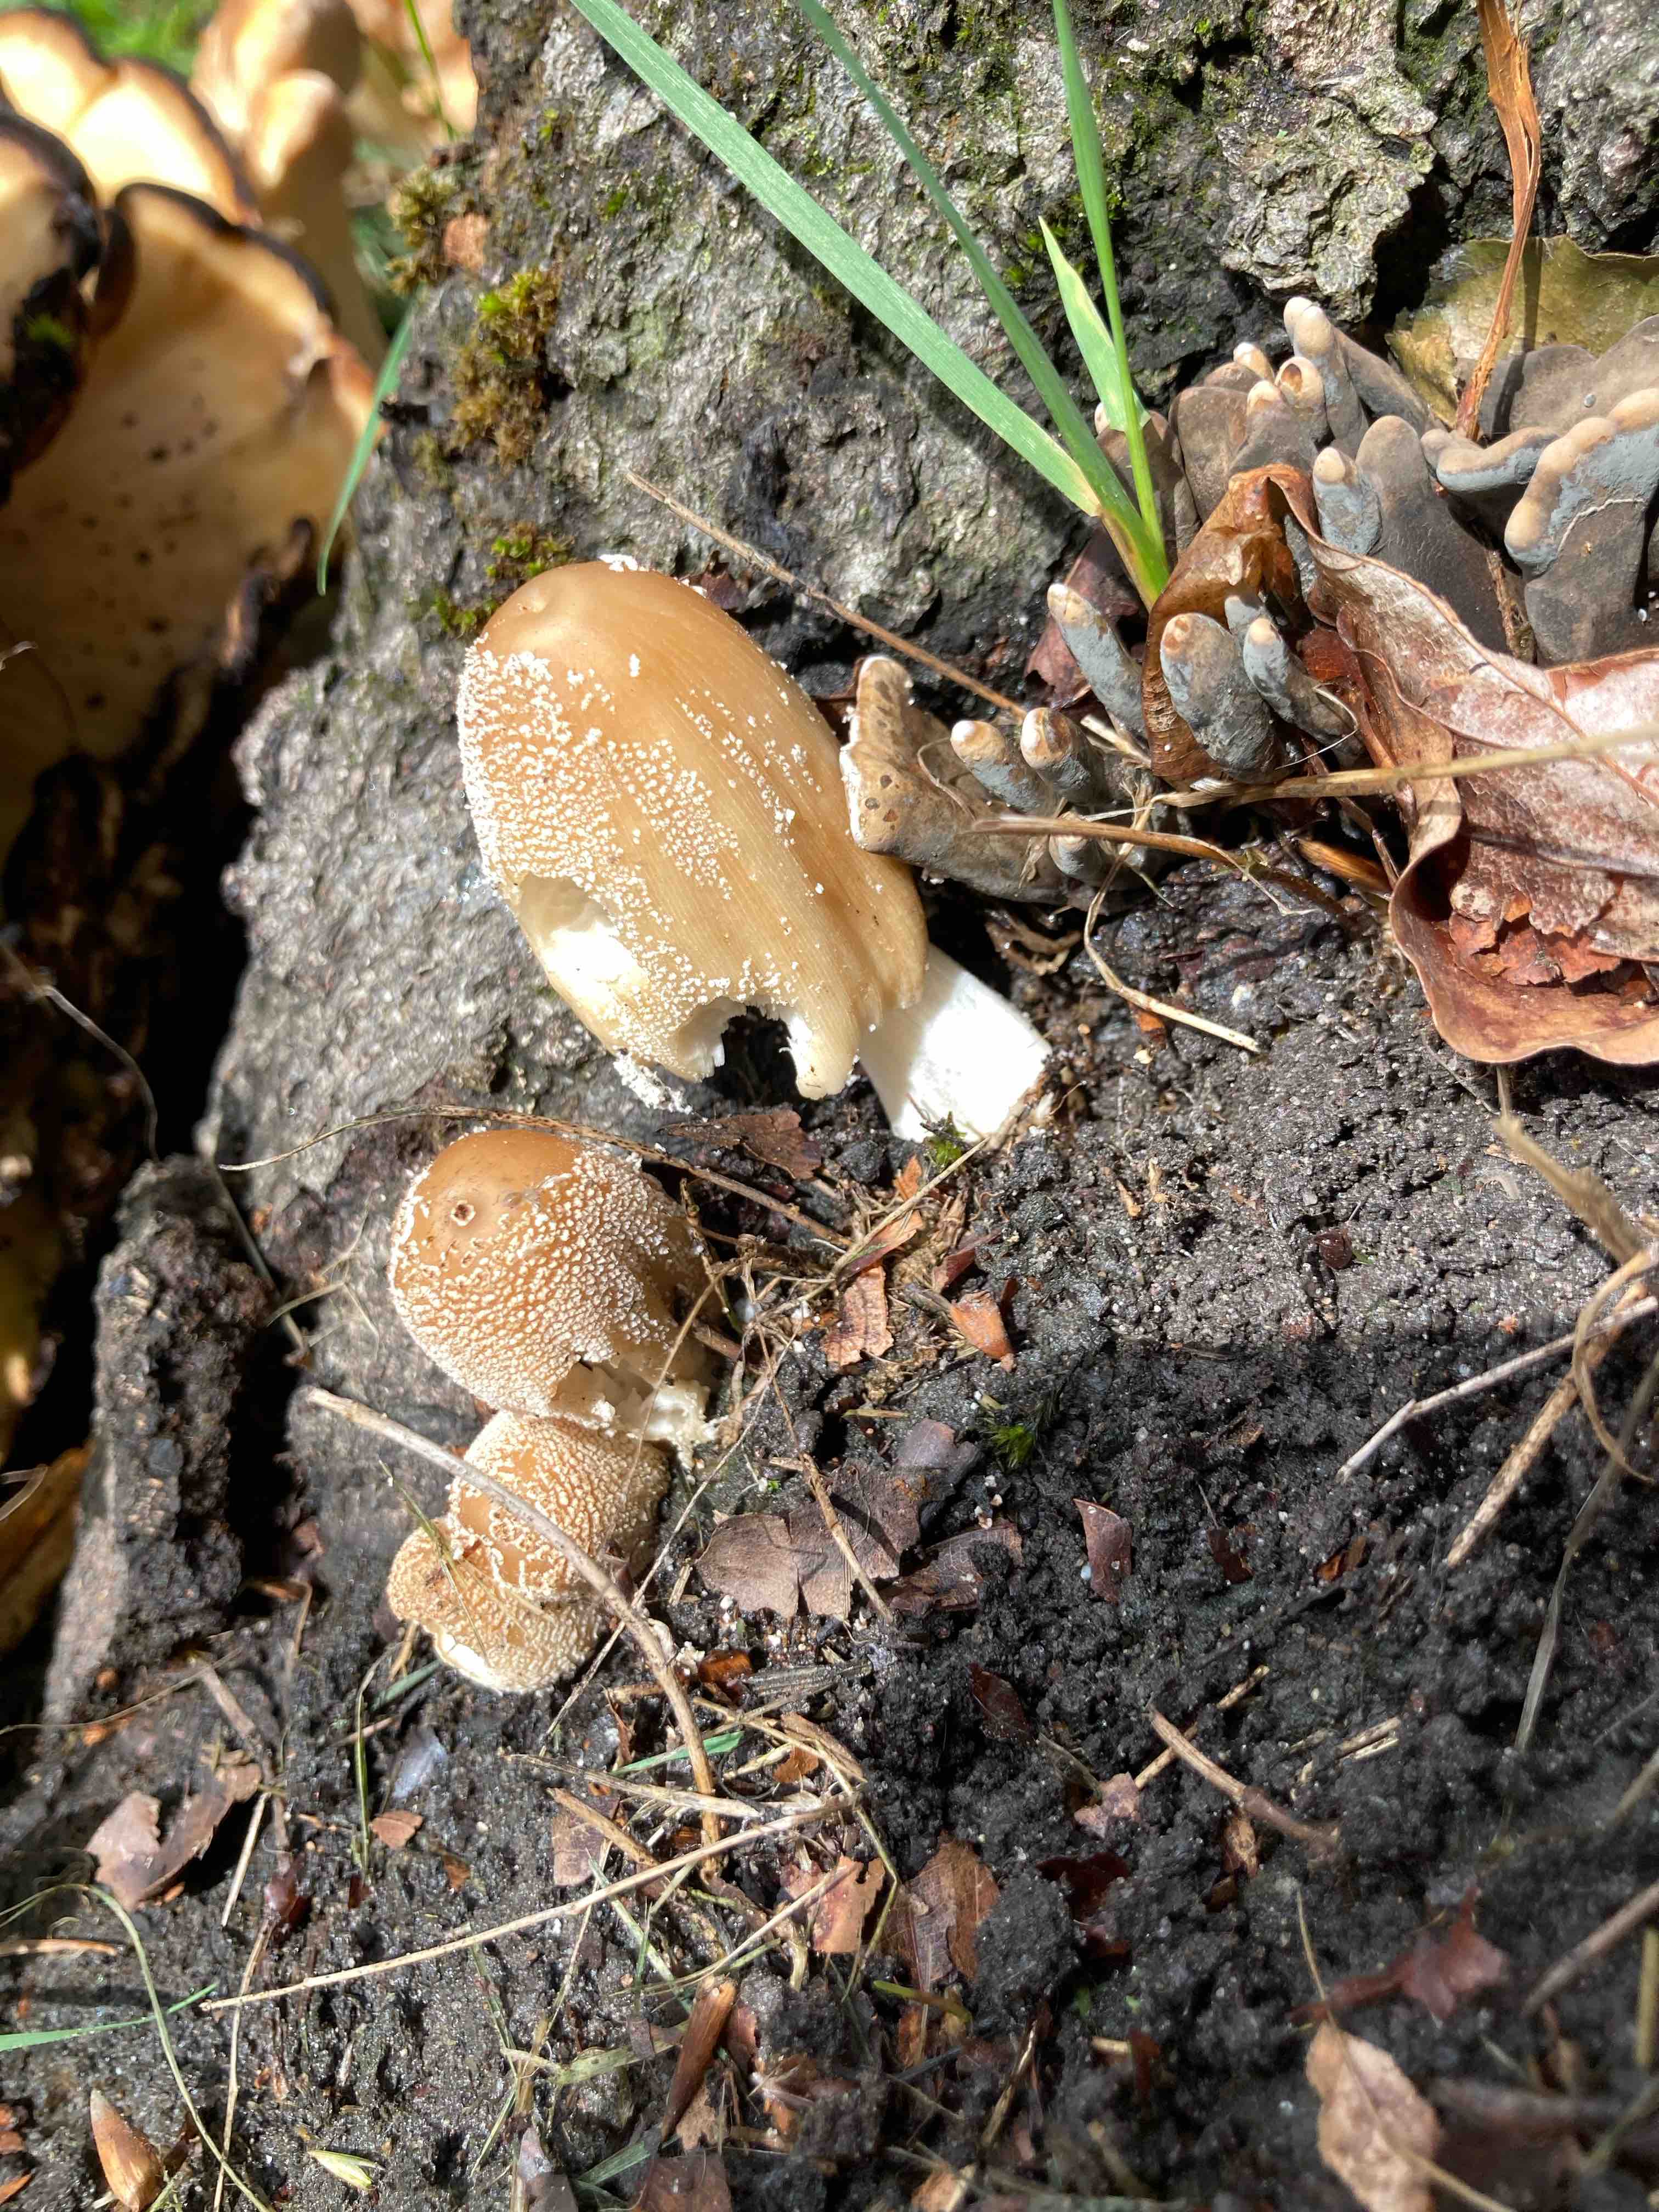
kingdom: Fungi
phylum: Basidiomycota
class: Agaricomycetes
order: Agaricales
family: Psathyrellaceae
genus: Coprinellus
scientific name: Coprinellus
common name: blækhat
